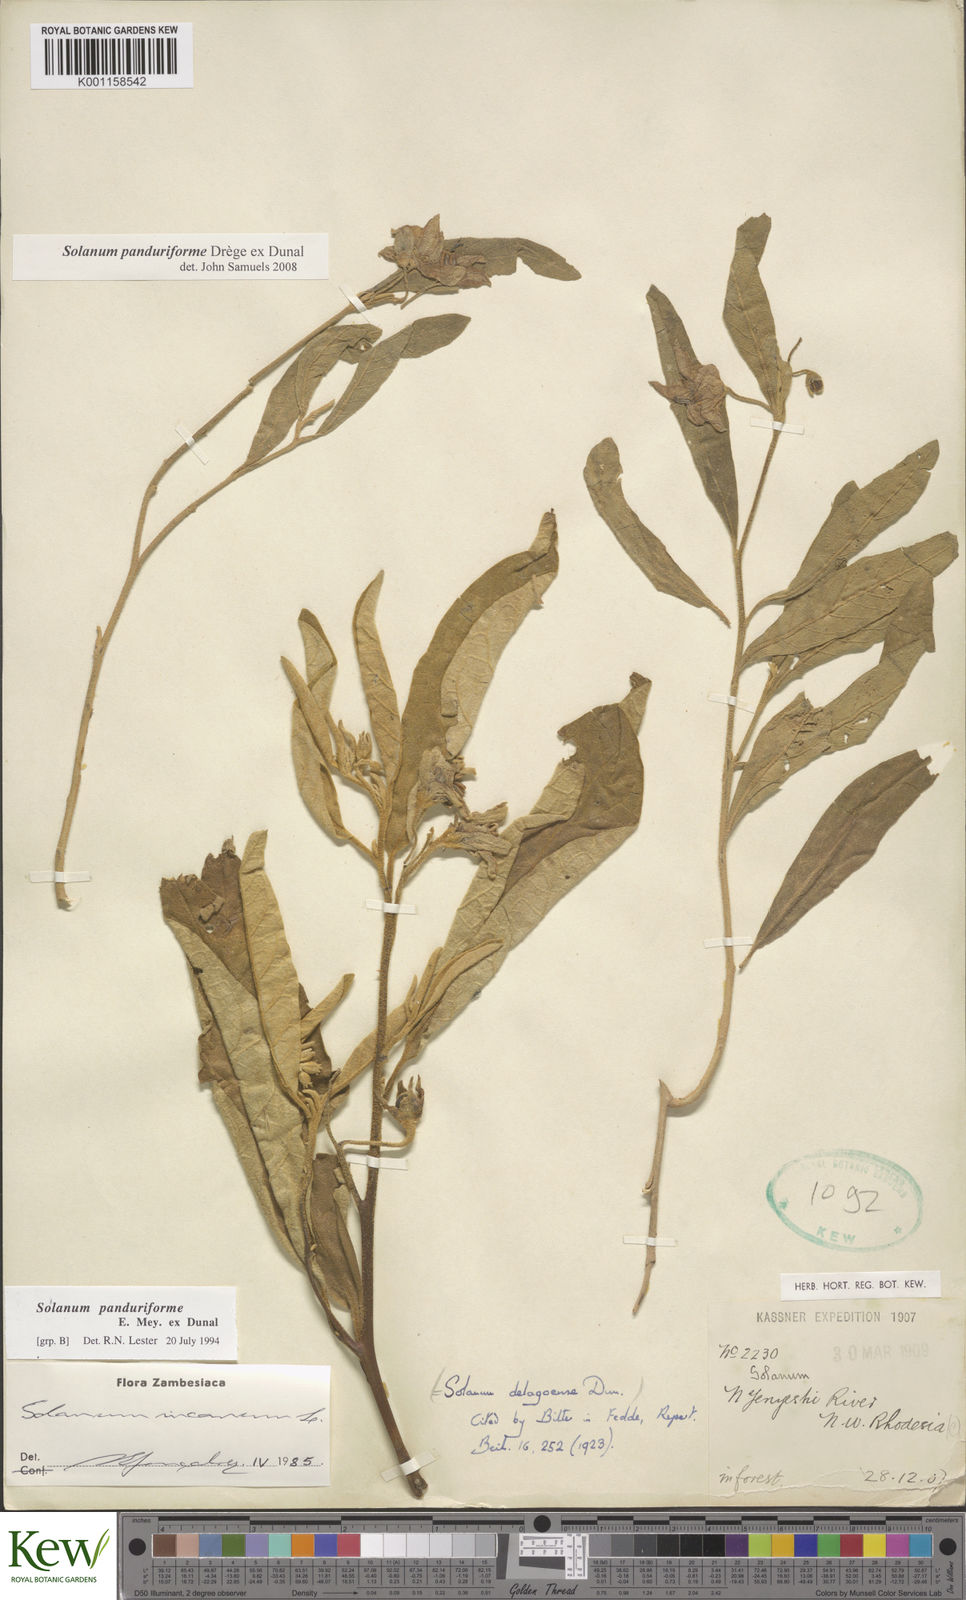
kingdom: Plantae
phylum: Tracheophyta
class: Magnoliopsida
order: Solanales
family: Solanaceae
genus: Solanum
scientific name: Solanum campylacanthum
